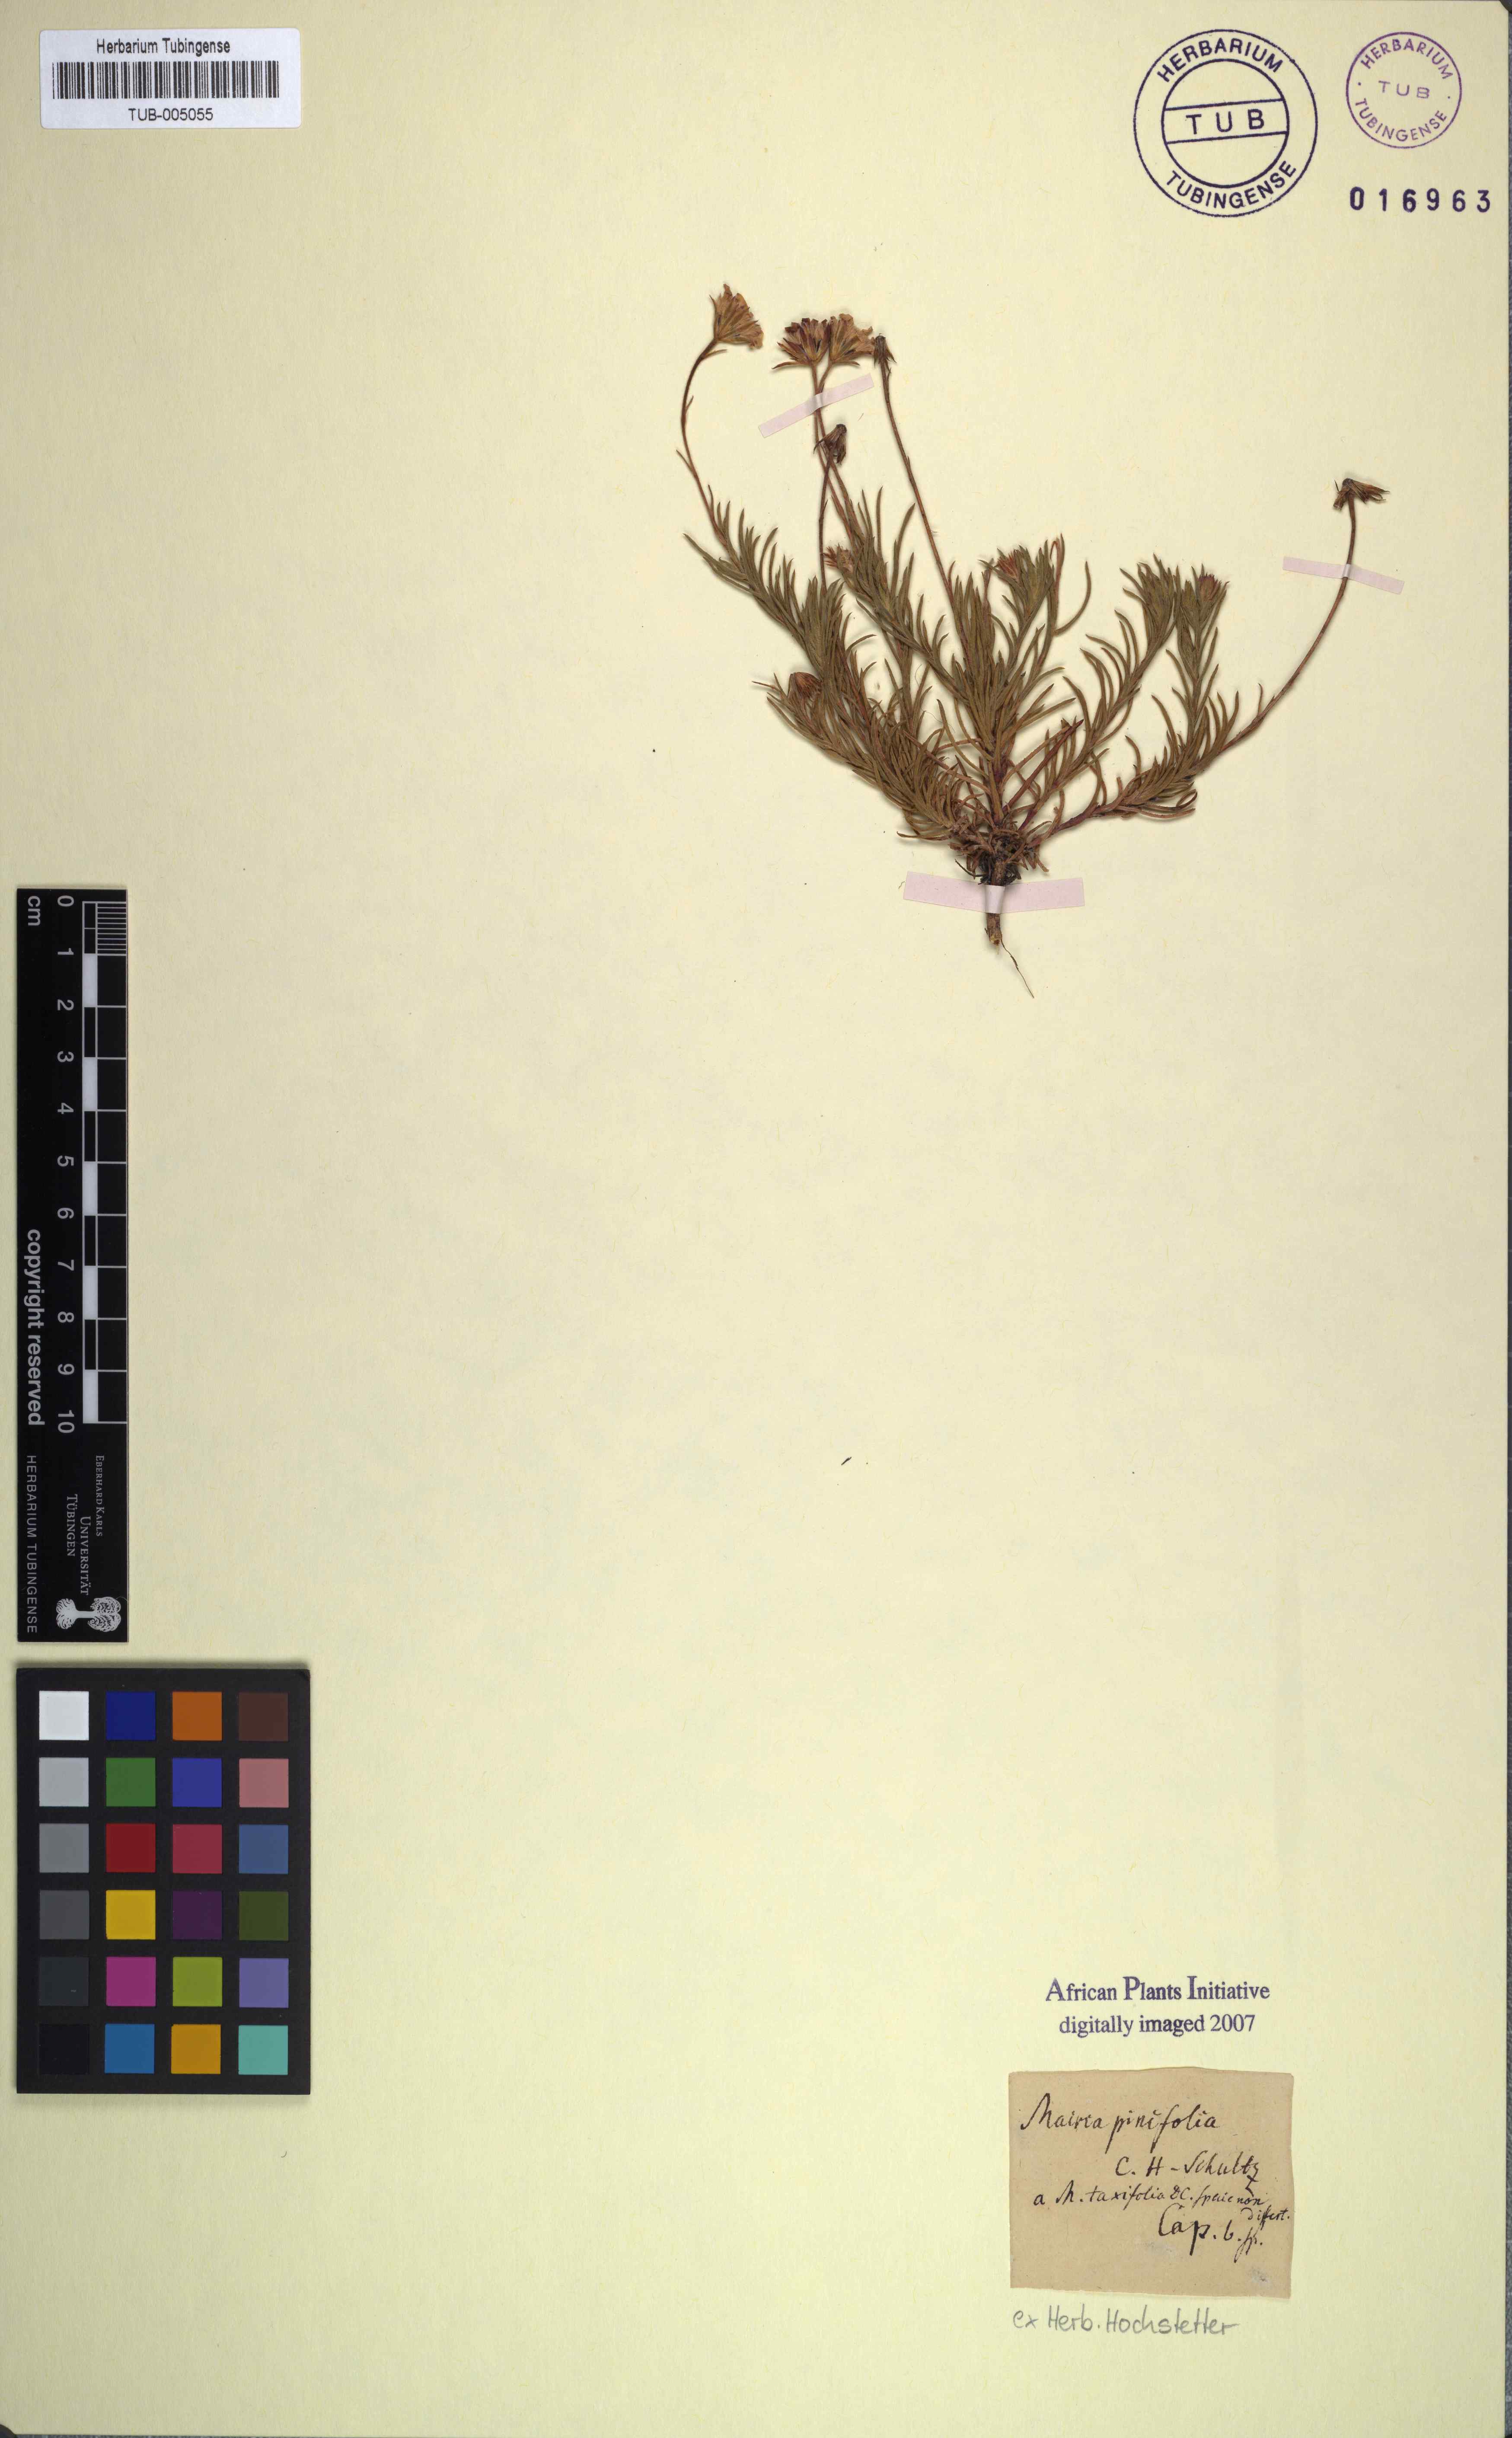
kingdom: Plantae
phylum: Tracheophyta
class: Magnoliopsida
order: Asterales
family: Asteraceae
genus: Zyrphelis
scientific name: Zyrphelis taxifolia
